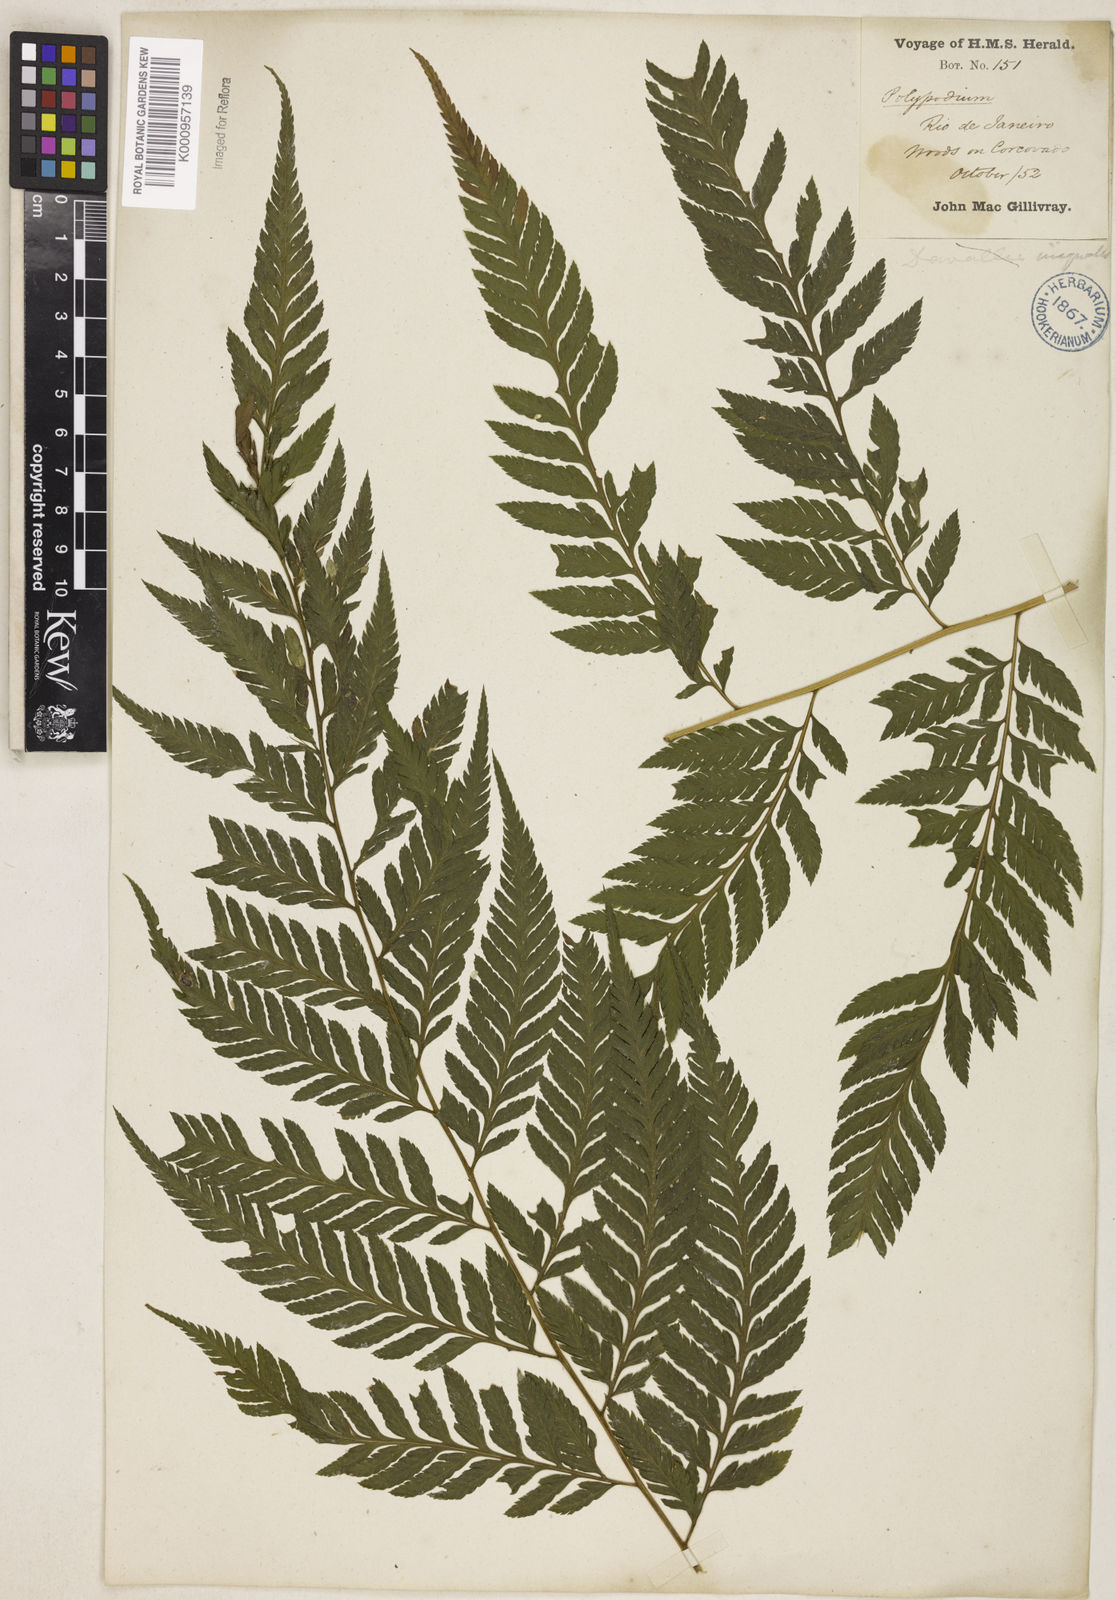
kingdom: Plantae
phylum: Tracheophyta
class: Polypodiopsida
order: Polypodiales
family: Dryopteridaceae
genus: Parapolystichum
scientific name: Parapolystichum effusum
